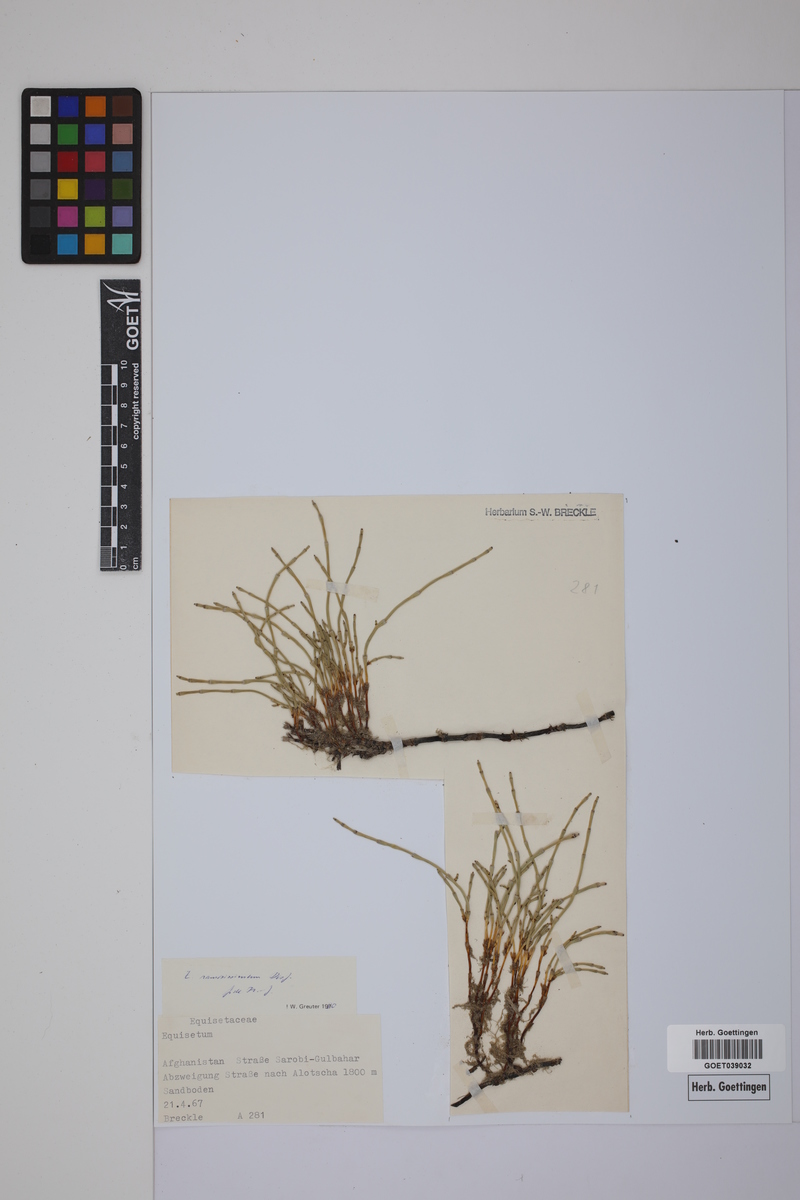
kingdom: Plantae
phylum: Tracheophyta
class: Polypodiopsida
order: Equisetales
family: Equisetaceae
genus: Equisetum
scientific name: Equisetum giganteum
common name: Giant horsetail
